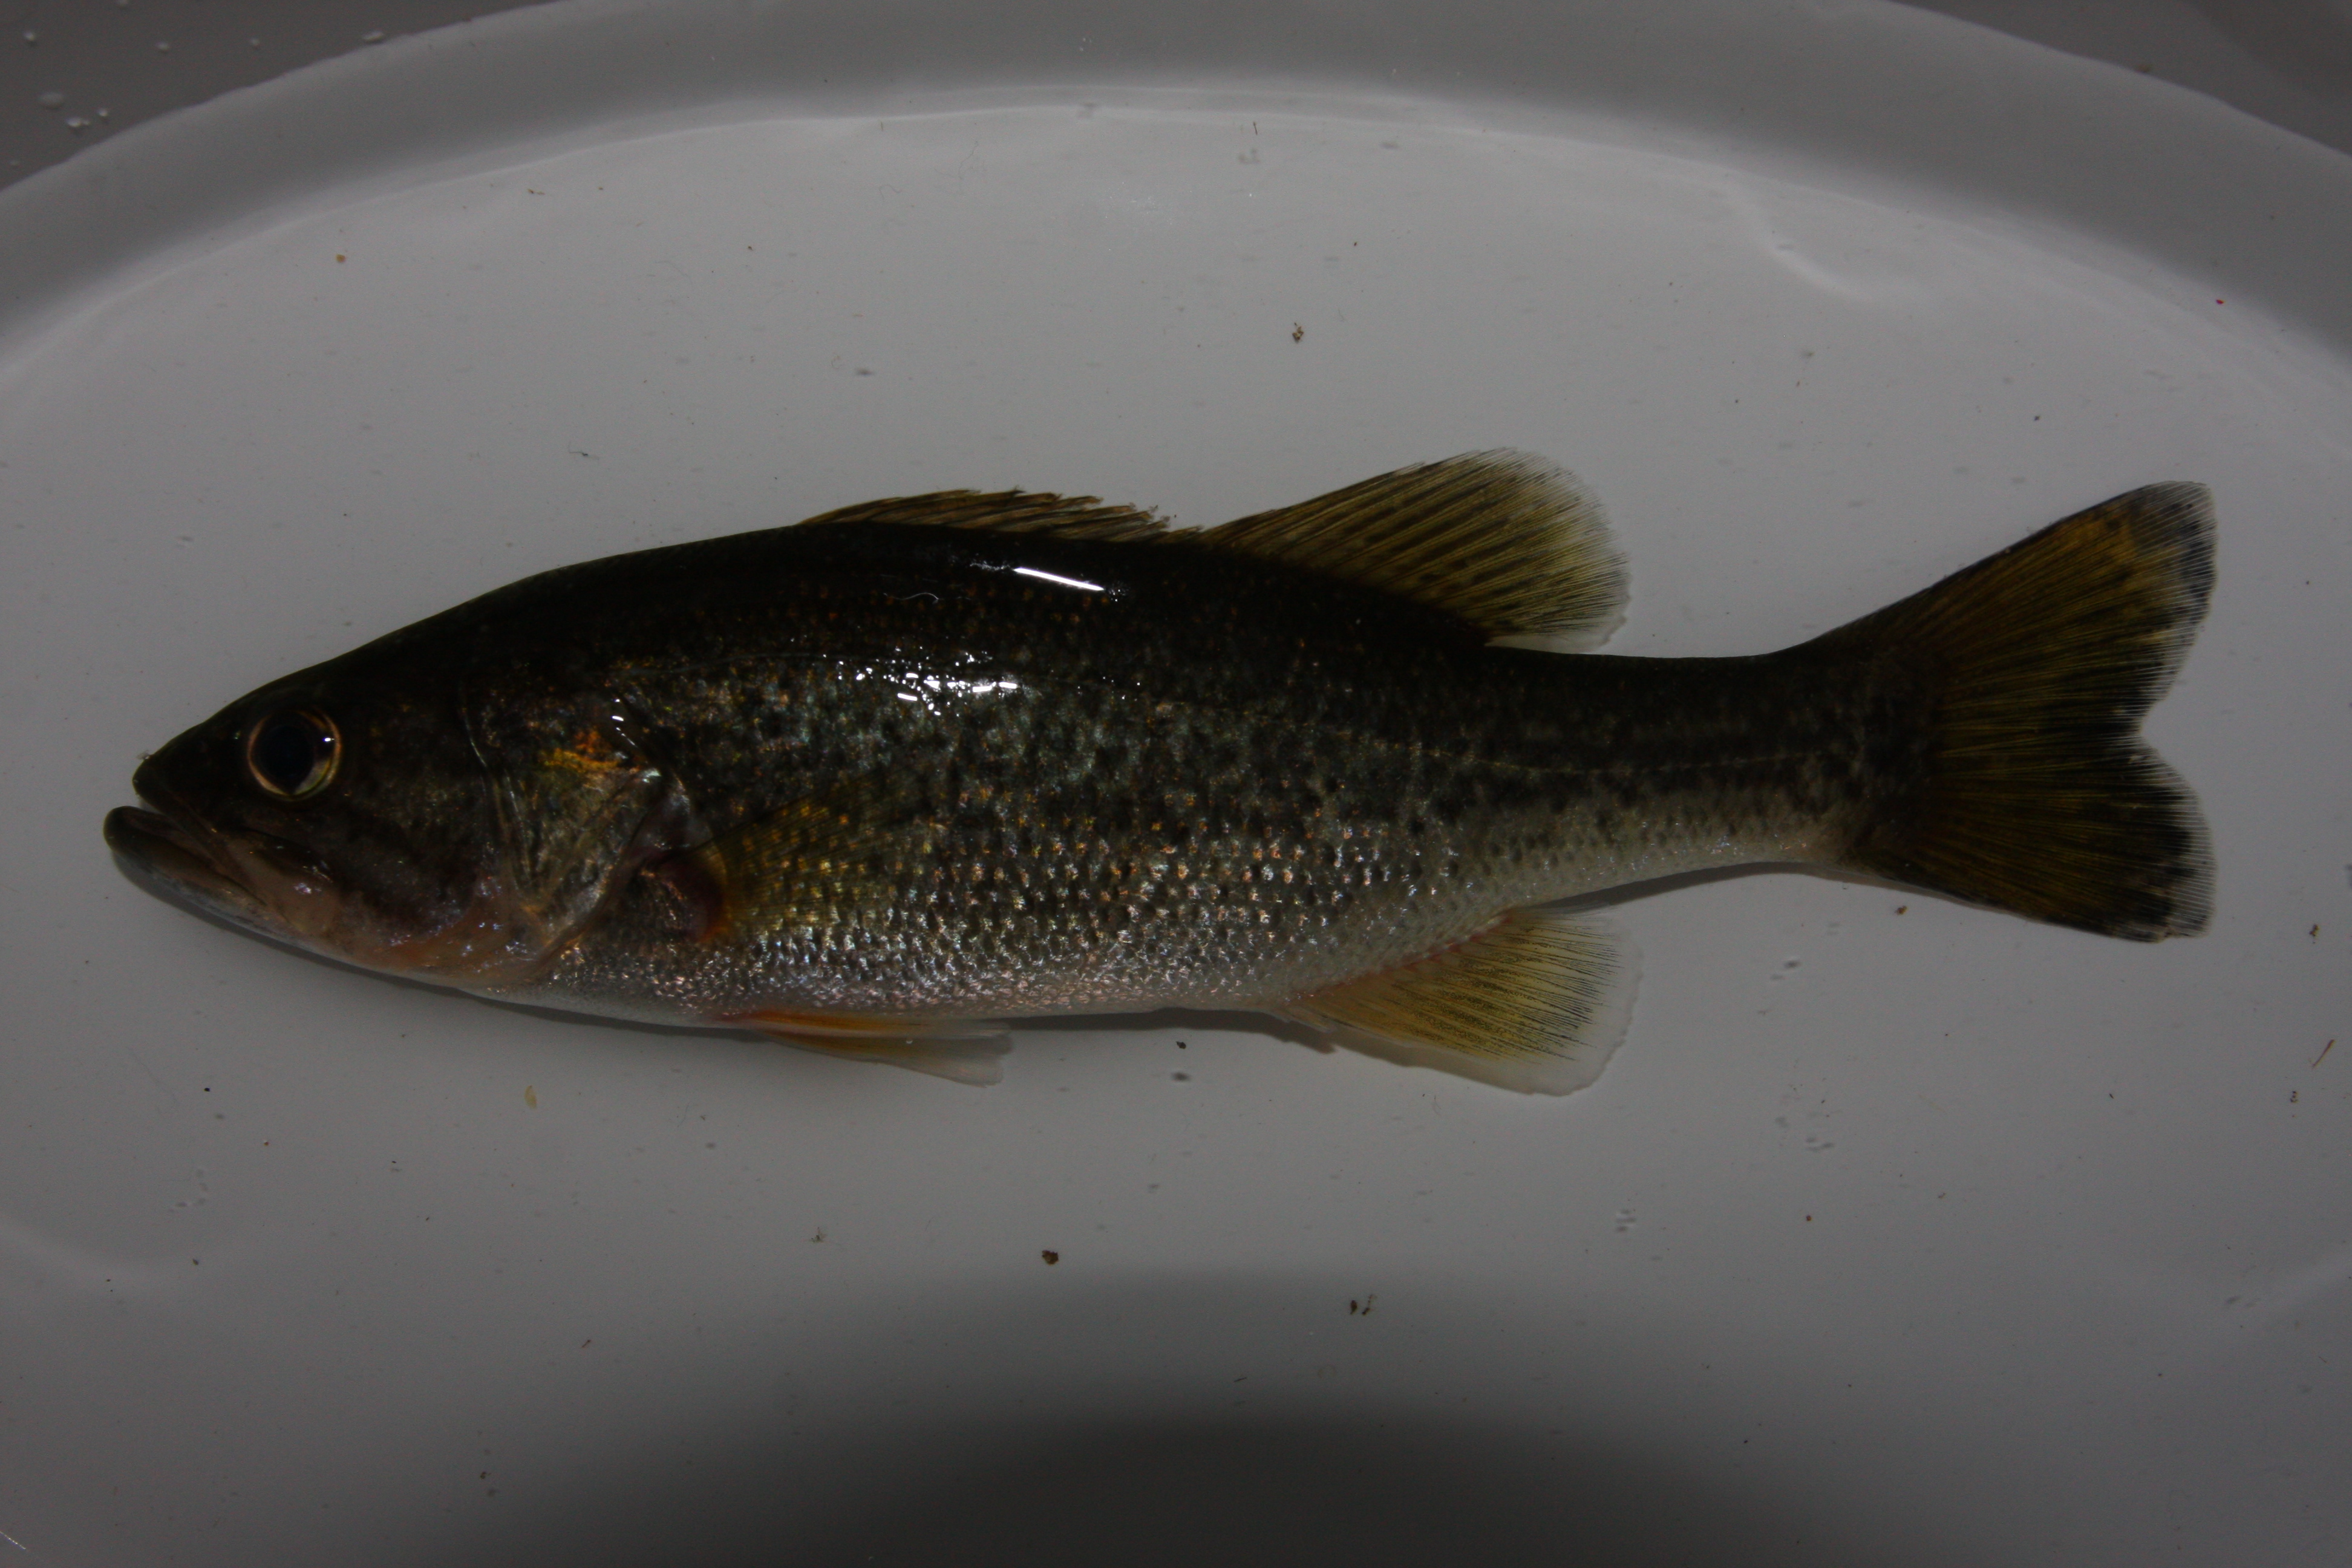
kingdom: Animalia
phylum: Chordata
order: Perciformes
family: Centrarchidae
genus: Micropterus
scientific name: Micropterus salmoides
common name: Largemouth bass
